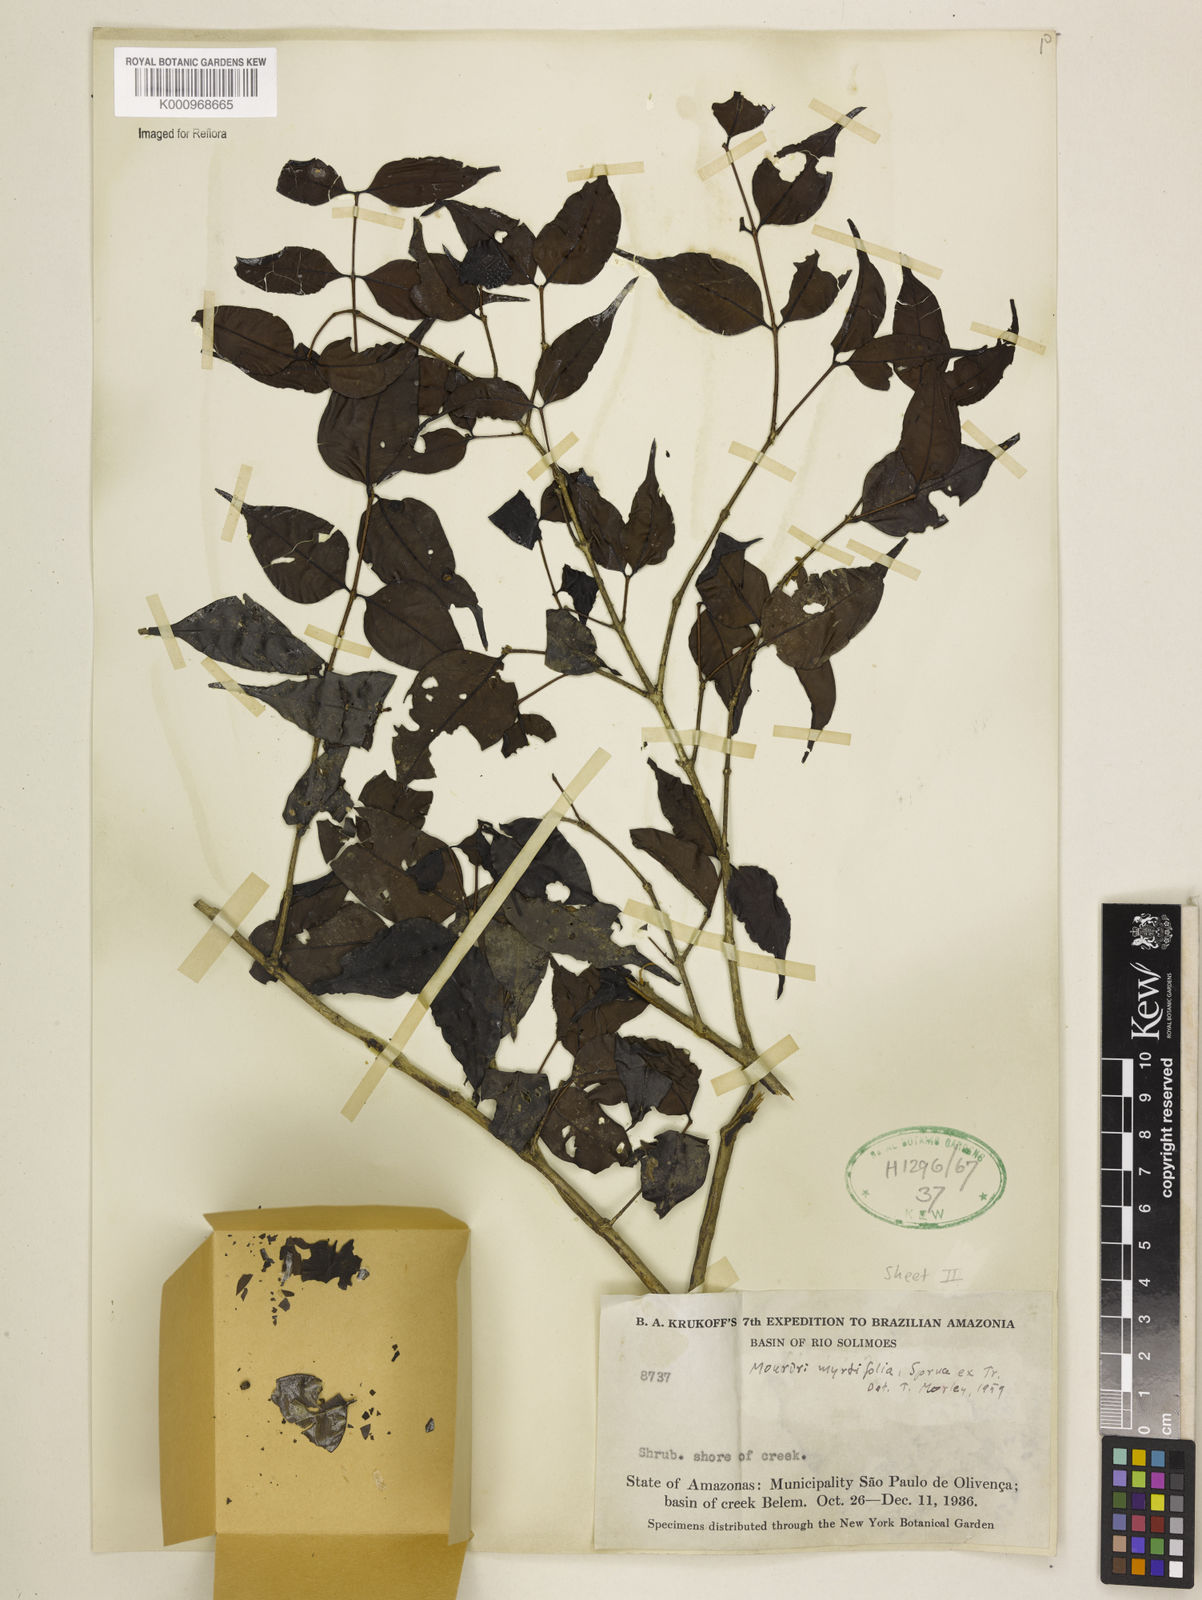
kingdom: Plantae
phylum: Tracheophyta
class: Magnoliopsida
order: Myrtales
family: Melastomataceae
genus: Mouriri
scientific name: Mouriri myrtifolia
